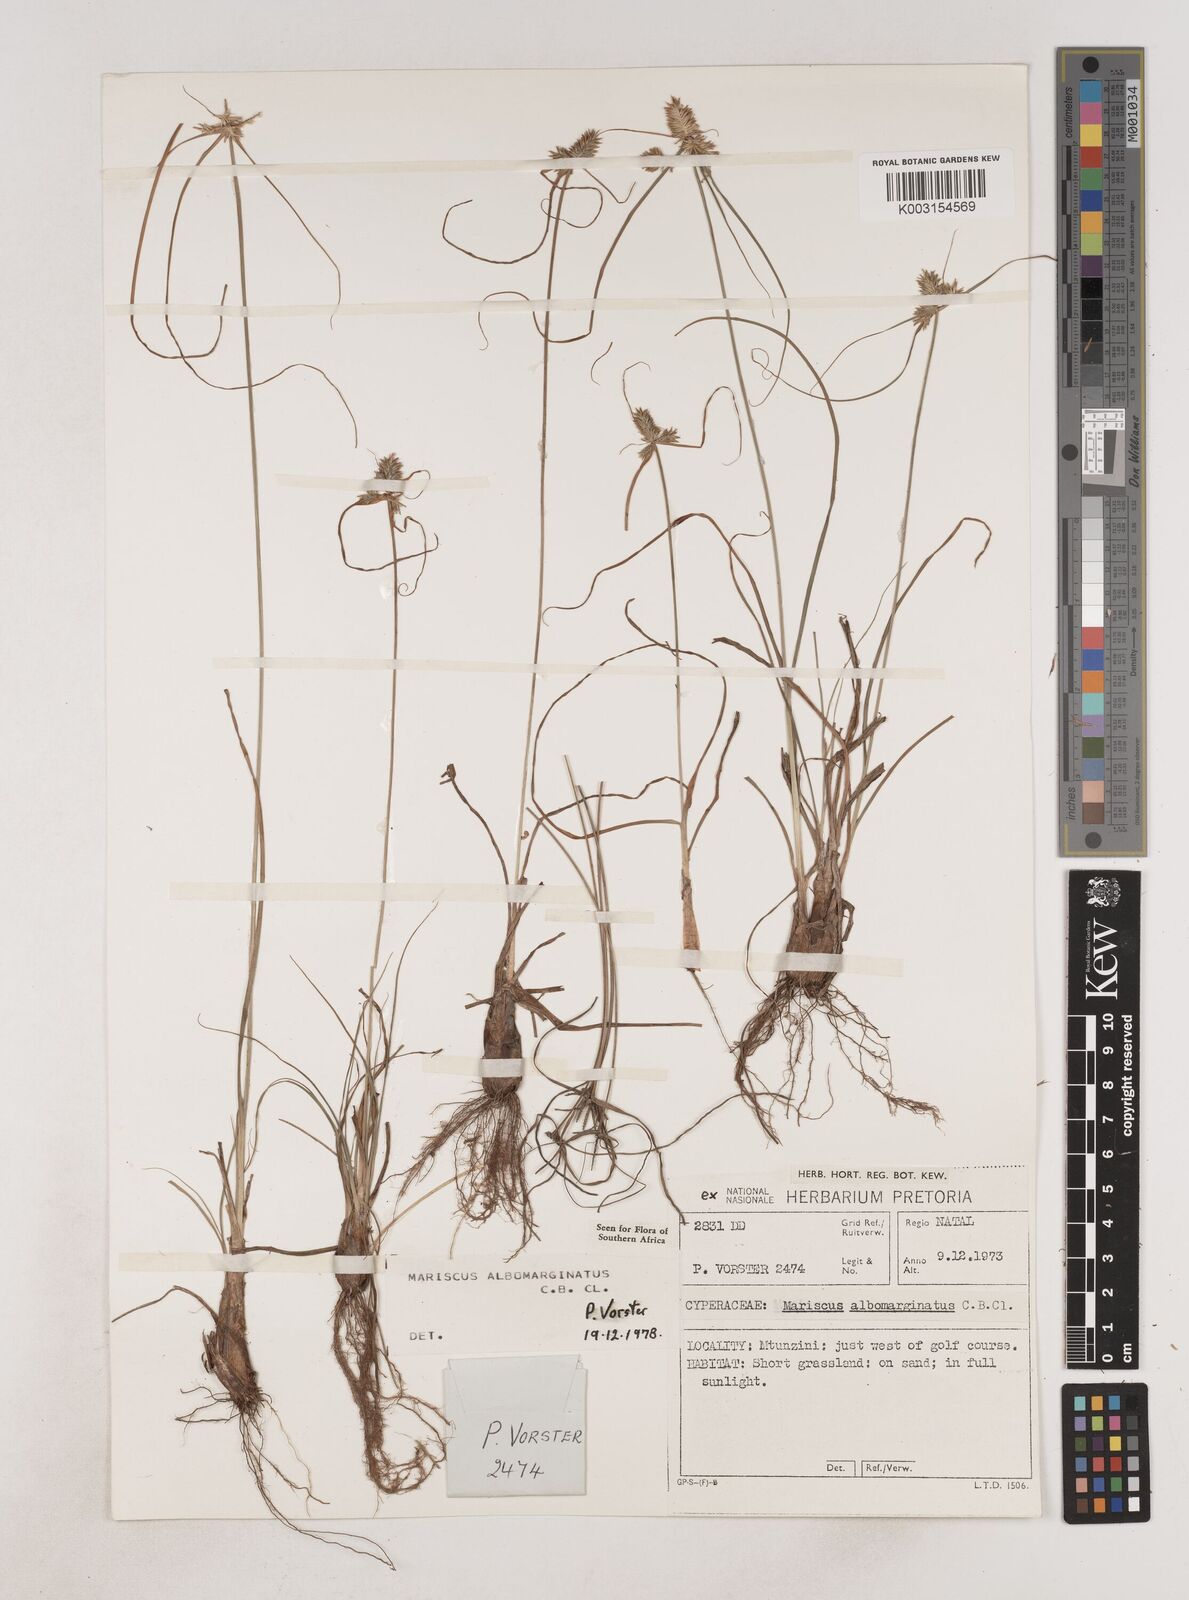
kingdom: Plantae
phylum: Tracheophyta
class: Liliopsida
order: Poales
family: Cyperaceae
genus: Cyperus
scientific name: Cyperus indecorus
